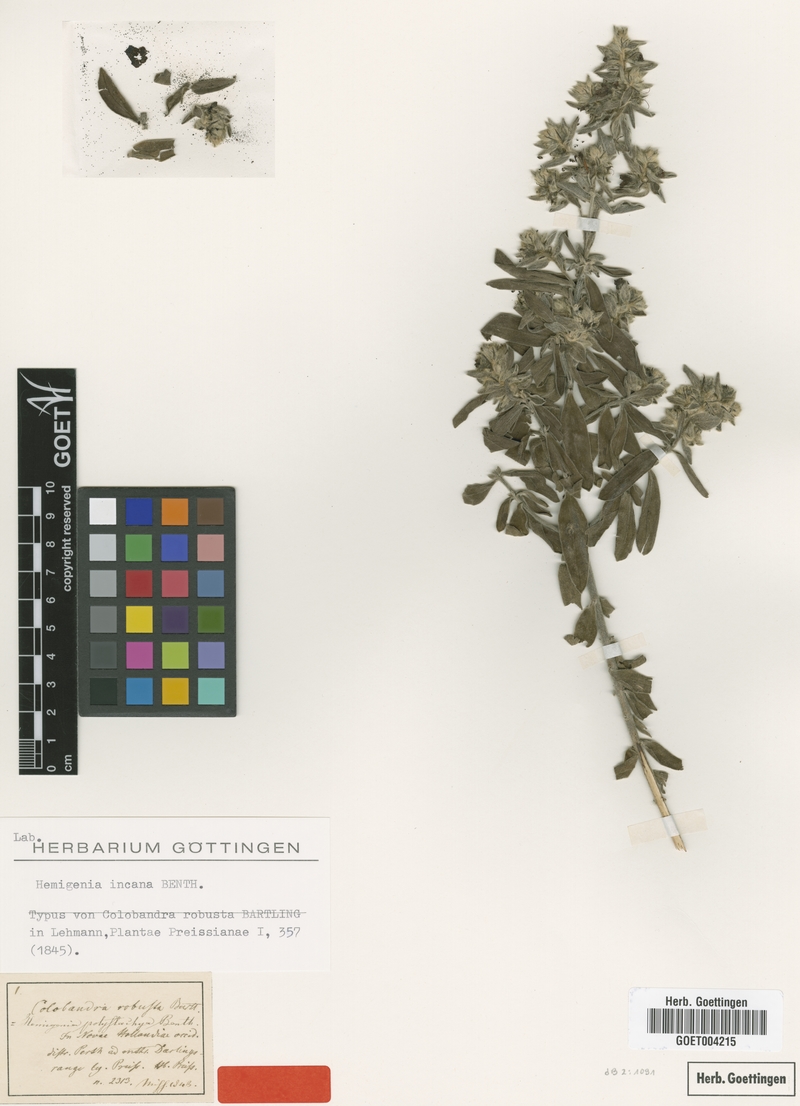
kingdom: Plantae
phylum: Tracheophyta
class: Magnoliopsida
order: Lamiales
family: Lamiaceae
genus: Hemigenia
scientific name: Hemigenia incana
